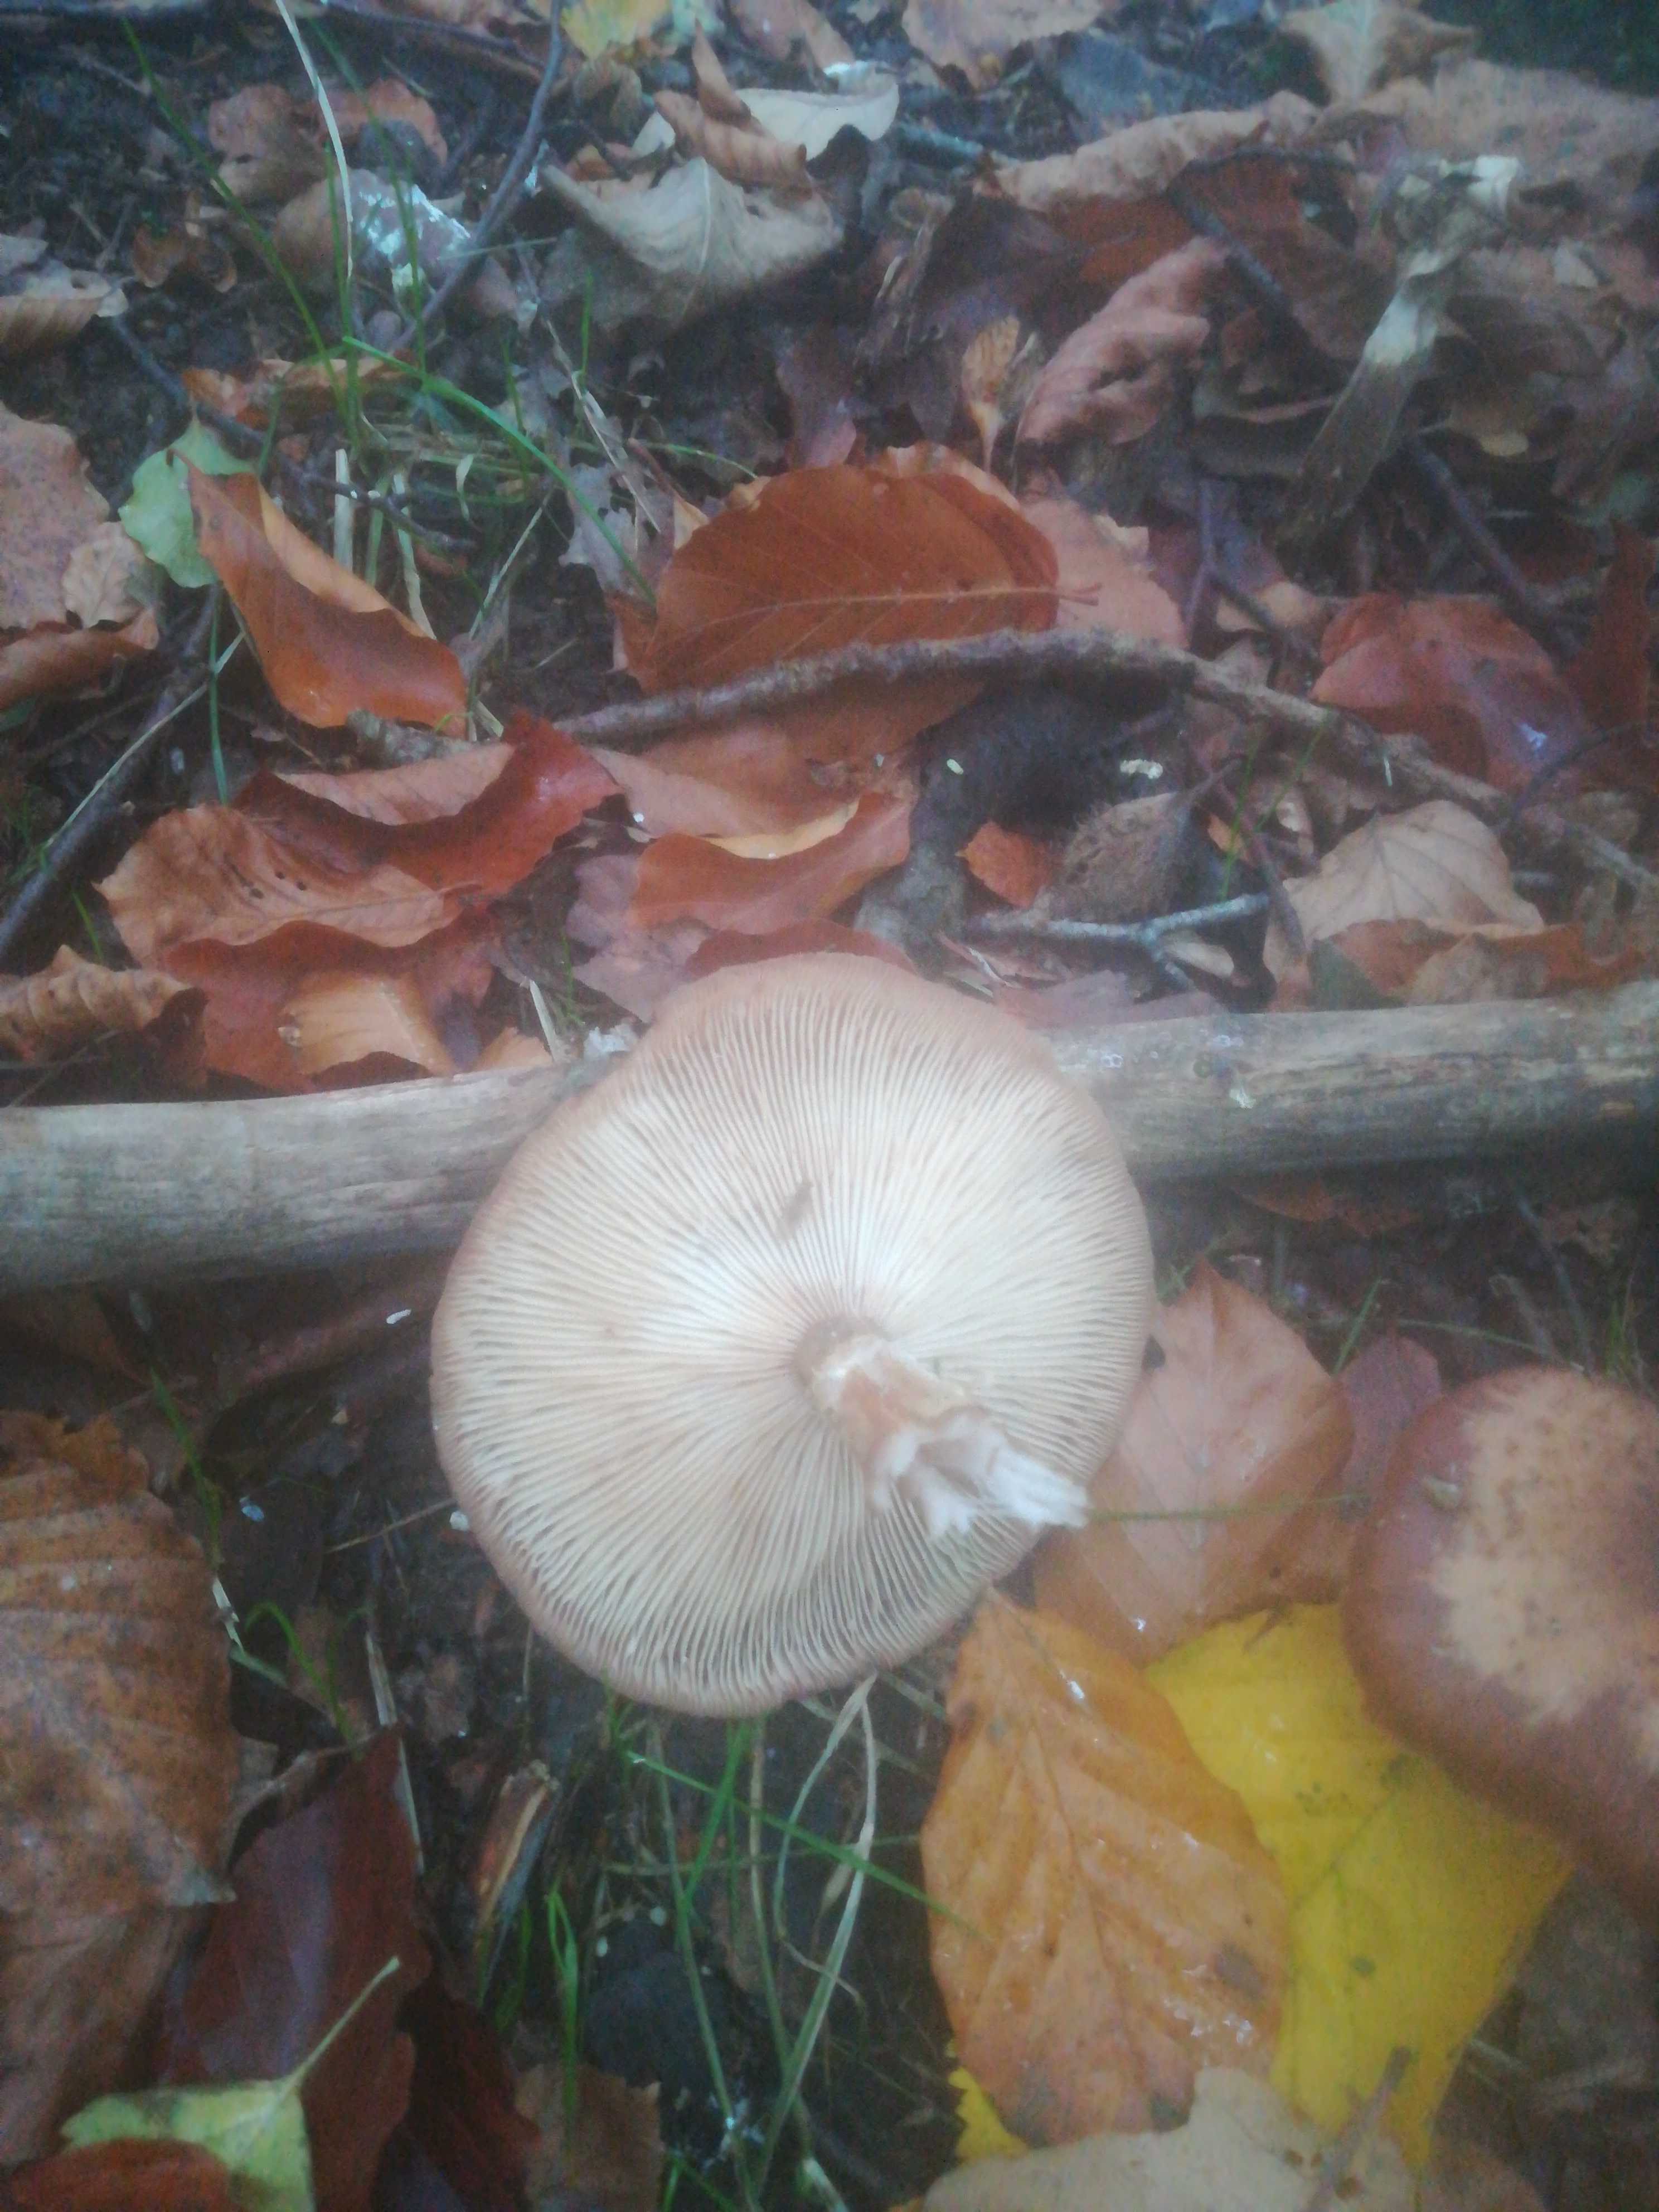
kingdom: Fungi
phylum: Basidiomycota
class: Agaricomycetes
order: Agaricales
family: Physalacriaceae
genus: Armillaria
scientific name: Armillaria
